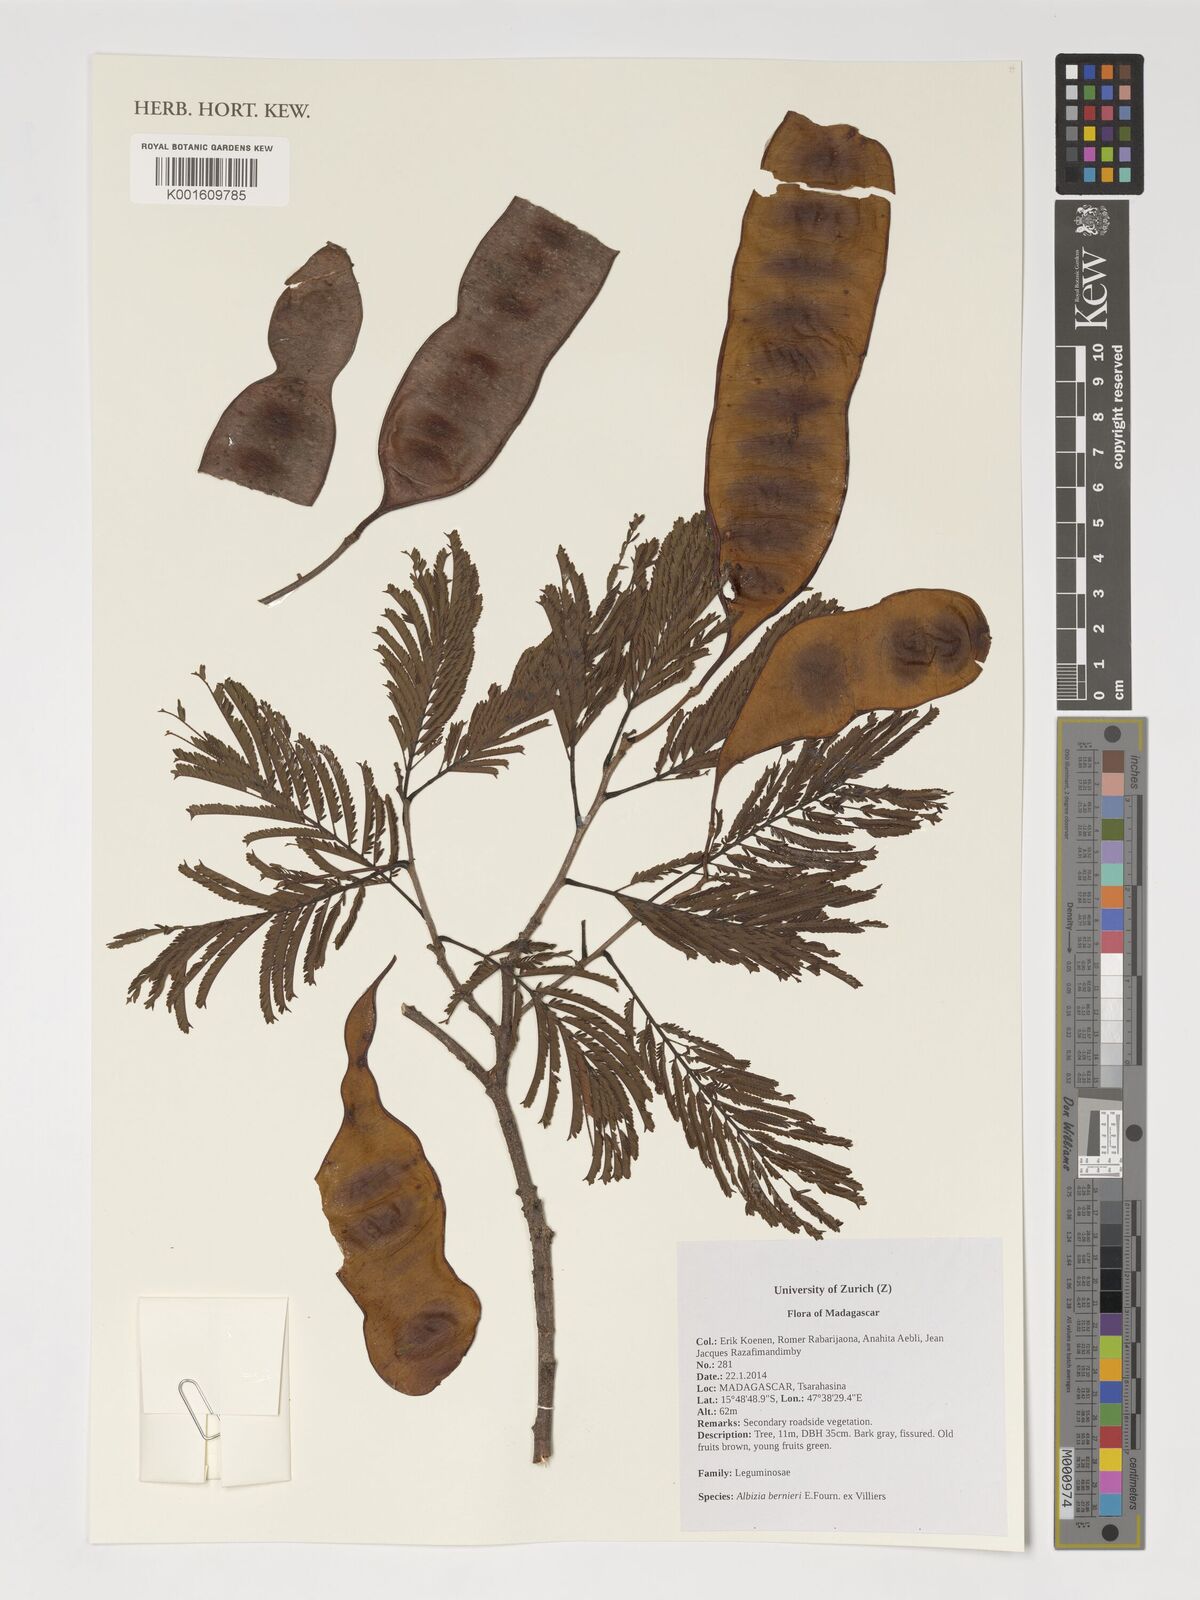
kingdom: Plantae
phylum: Tracheophyta
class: Magnoliopsida
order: Fabales
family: Fabaceae
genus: Albizia
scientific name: Albizia bernieri
